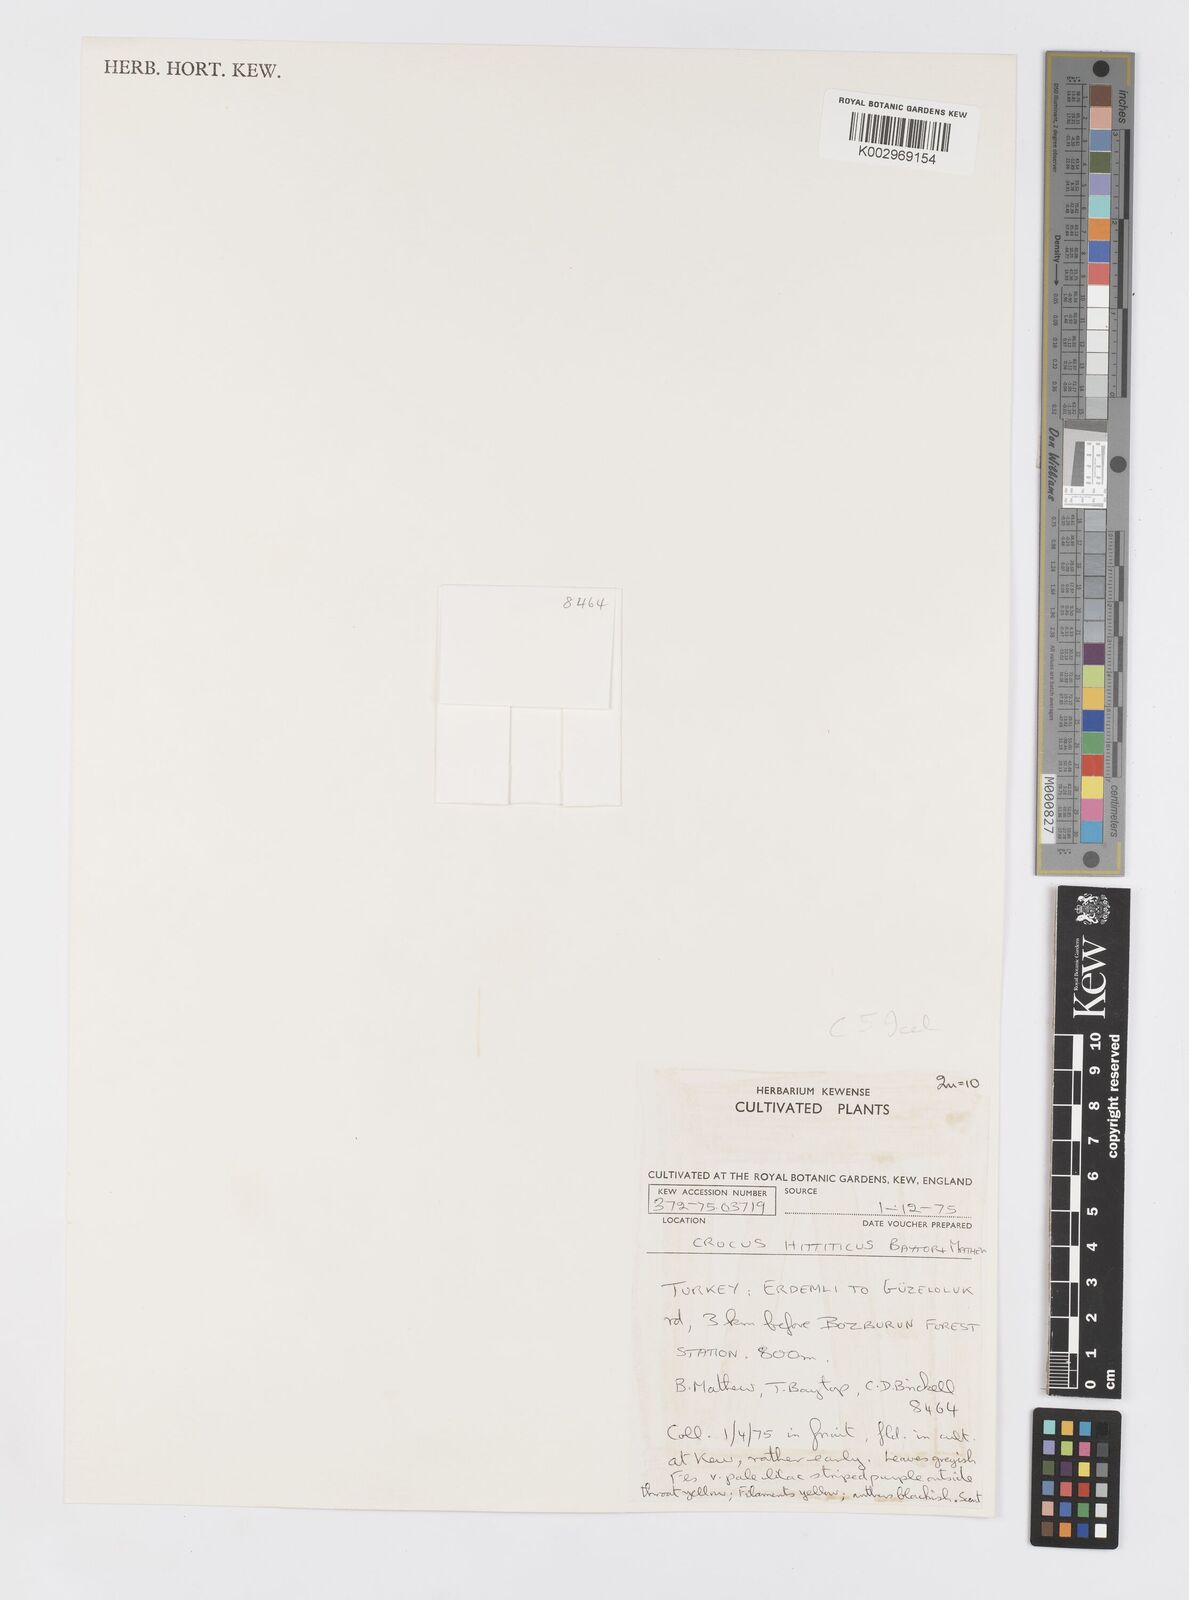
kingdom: Plantae
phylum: Tracheophyta
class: Liliopsida
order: Asparagales
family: Iridaceae
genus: Crocus
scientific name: Crocus hittiticus
